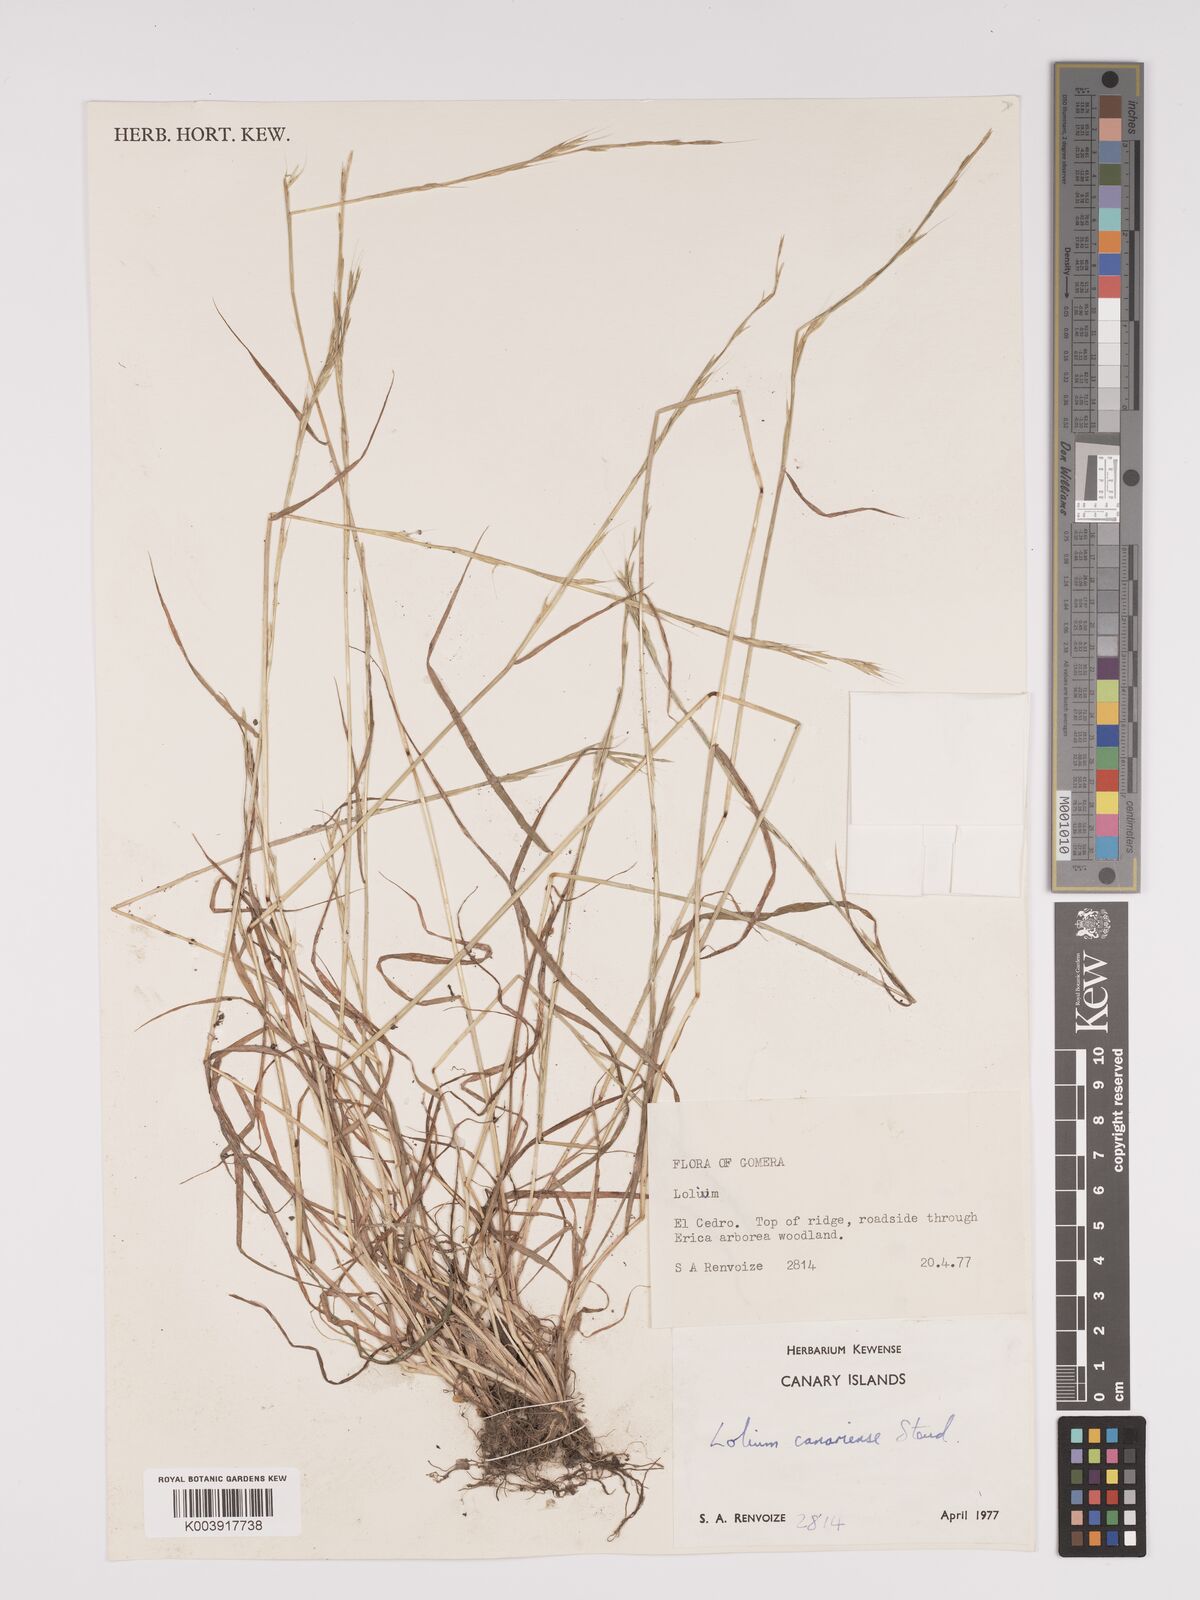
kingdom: Plantae
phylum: Tracheophyta
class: Liliopsida
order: Poales
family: Poaceae
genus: Lolium
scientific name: Lolium canariense
